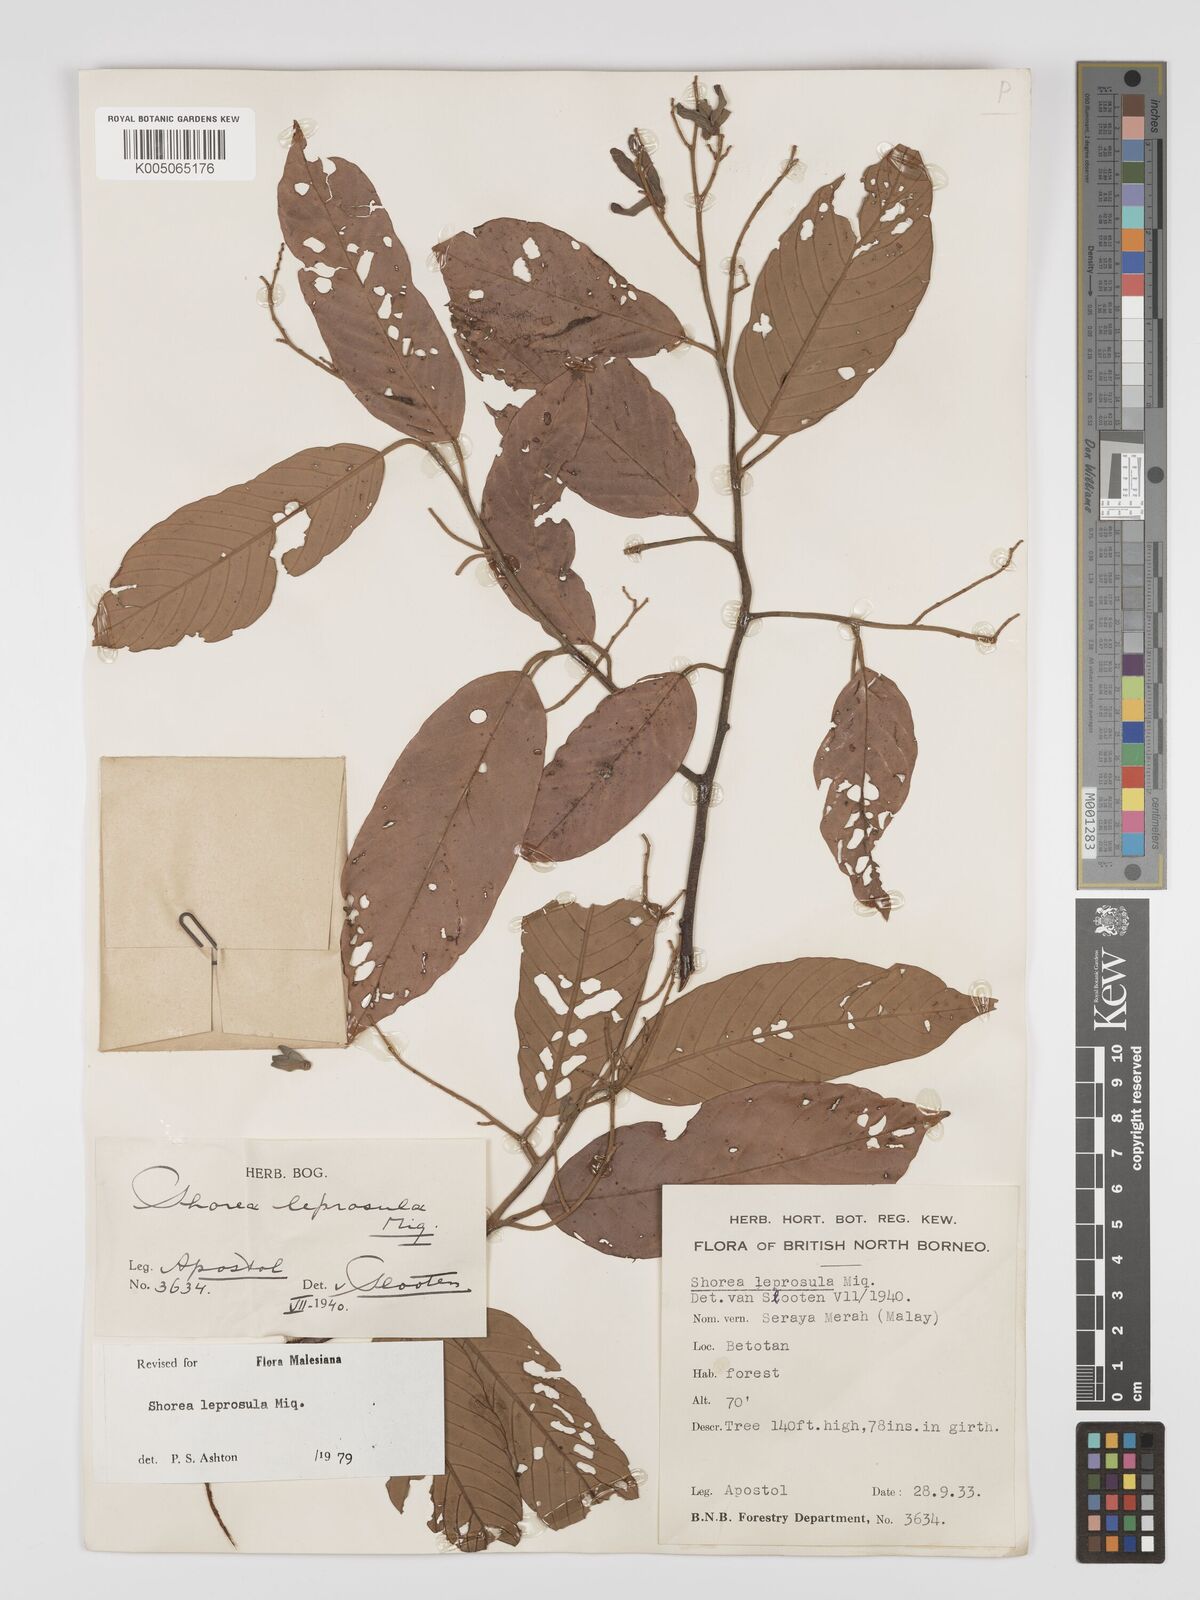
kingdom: Plantae
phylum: Tracheophyta
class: Magnoliopsida
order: Malvales
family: Dipterocarpaceae
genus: Shorea
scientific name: Shorea leprosula
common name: Light red meranti
